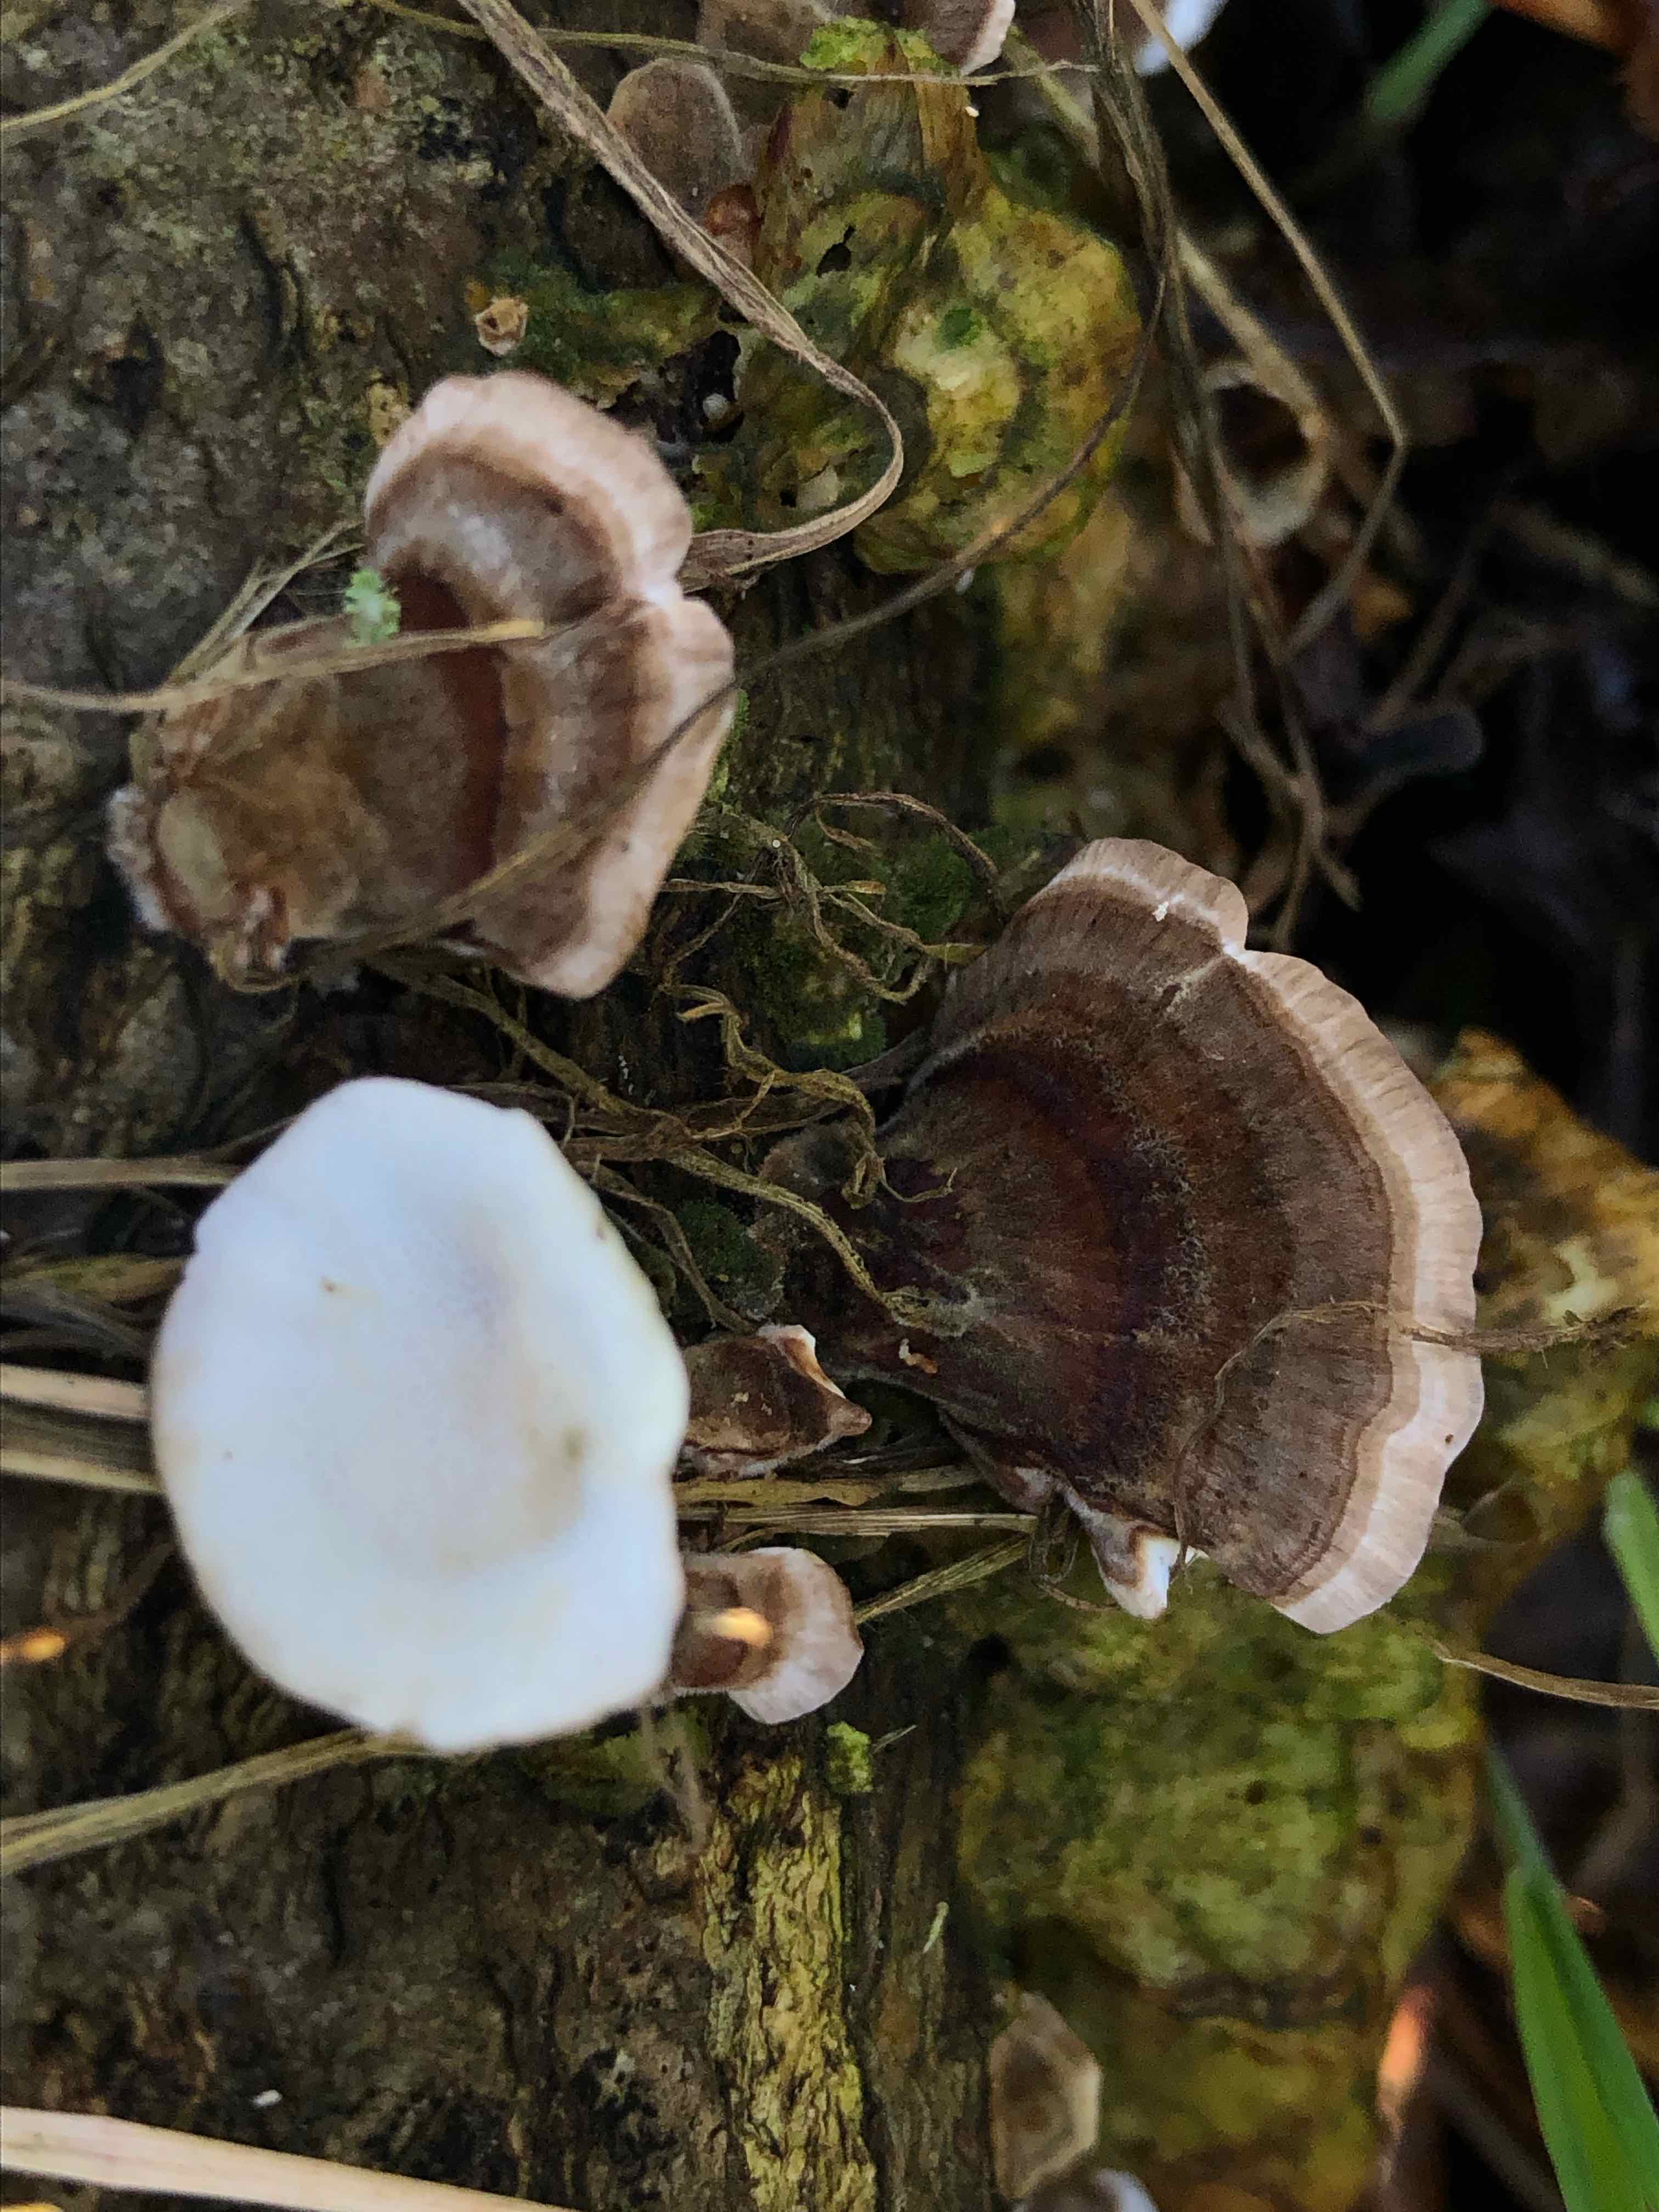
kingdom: Fungi
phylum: Basidiomycota
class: Agaricomycetes
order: Polyporales
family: Polyporaceae
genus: Trametes
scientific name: Trametes versicolor
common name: broget læderporesvamp
